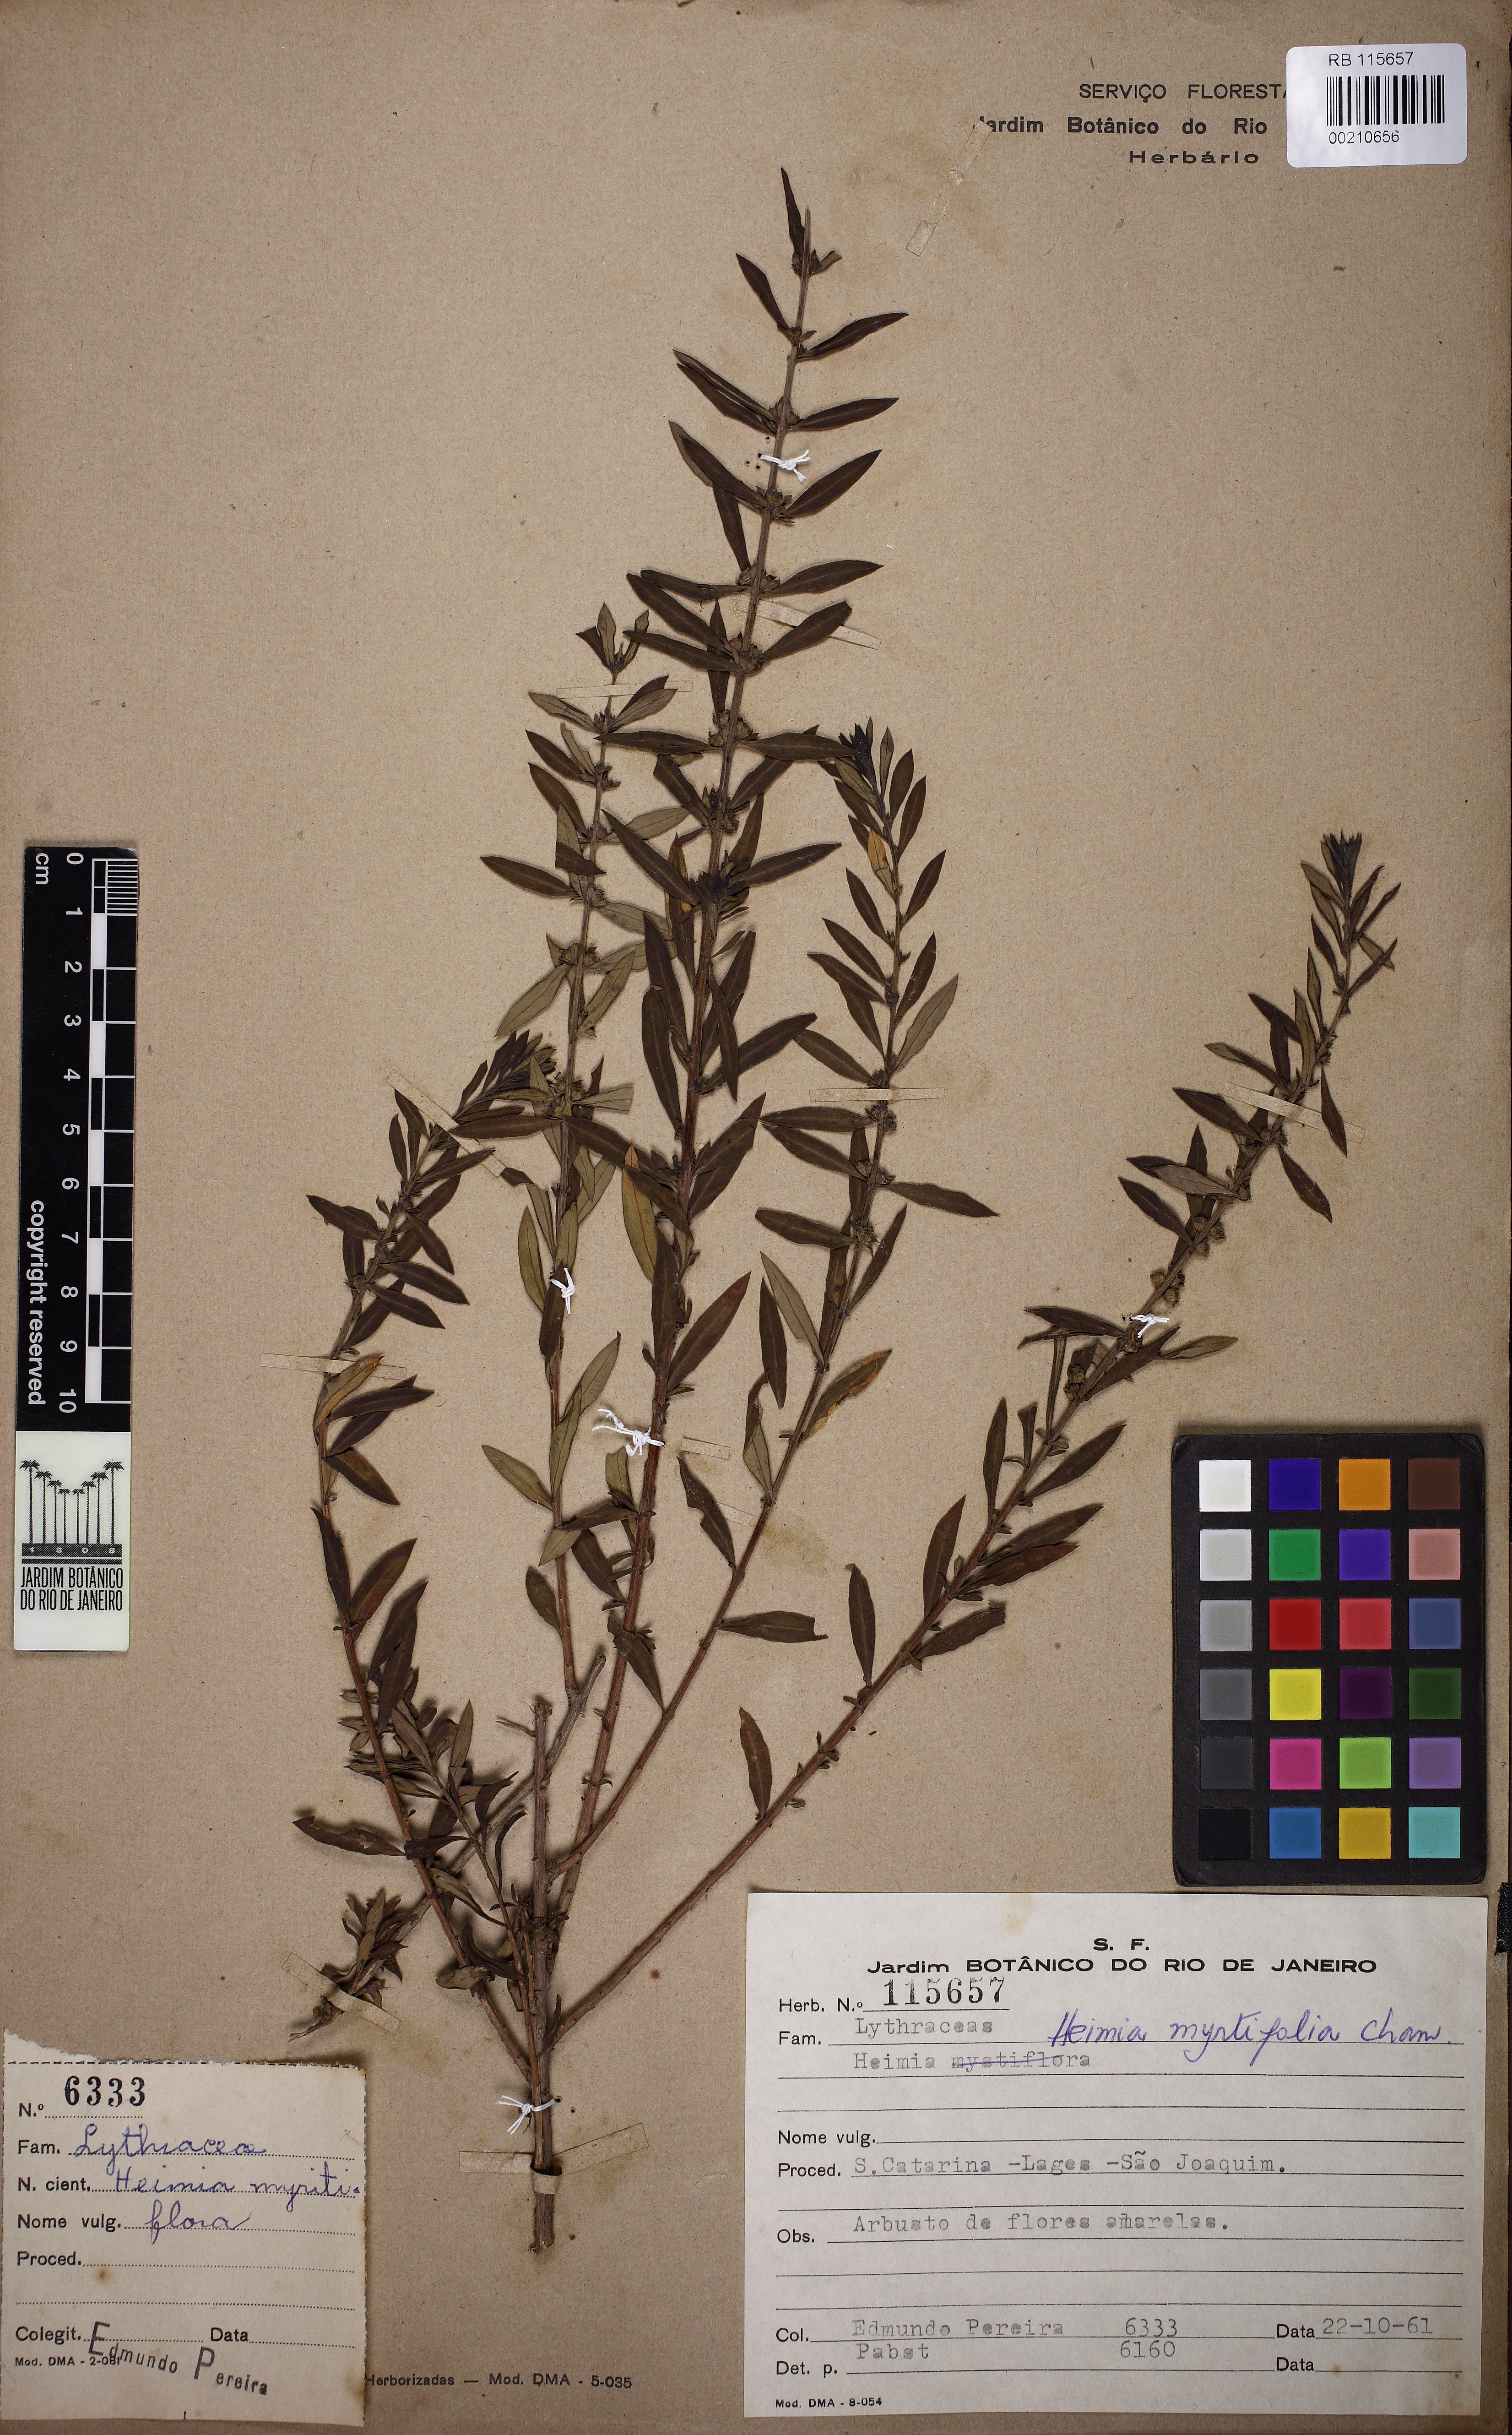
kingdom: Plantae
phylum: Tracheophyta
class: Magnoliopsida
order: Myrtales
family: Lythraceae
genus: Heimia
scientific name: Heimia apetala
